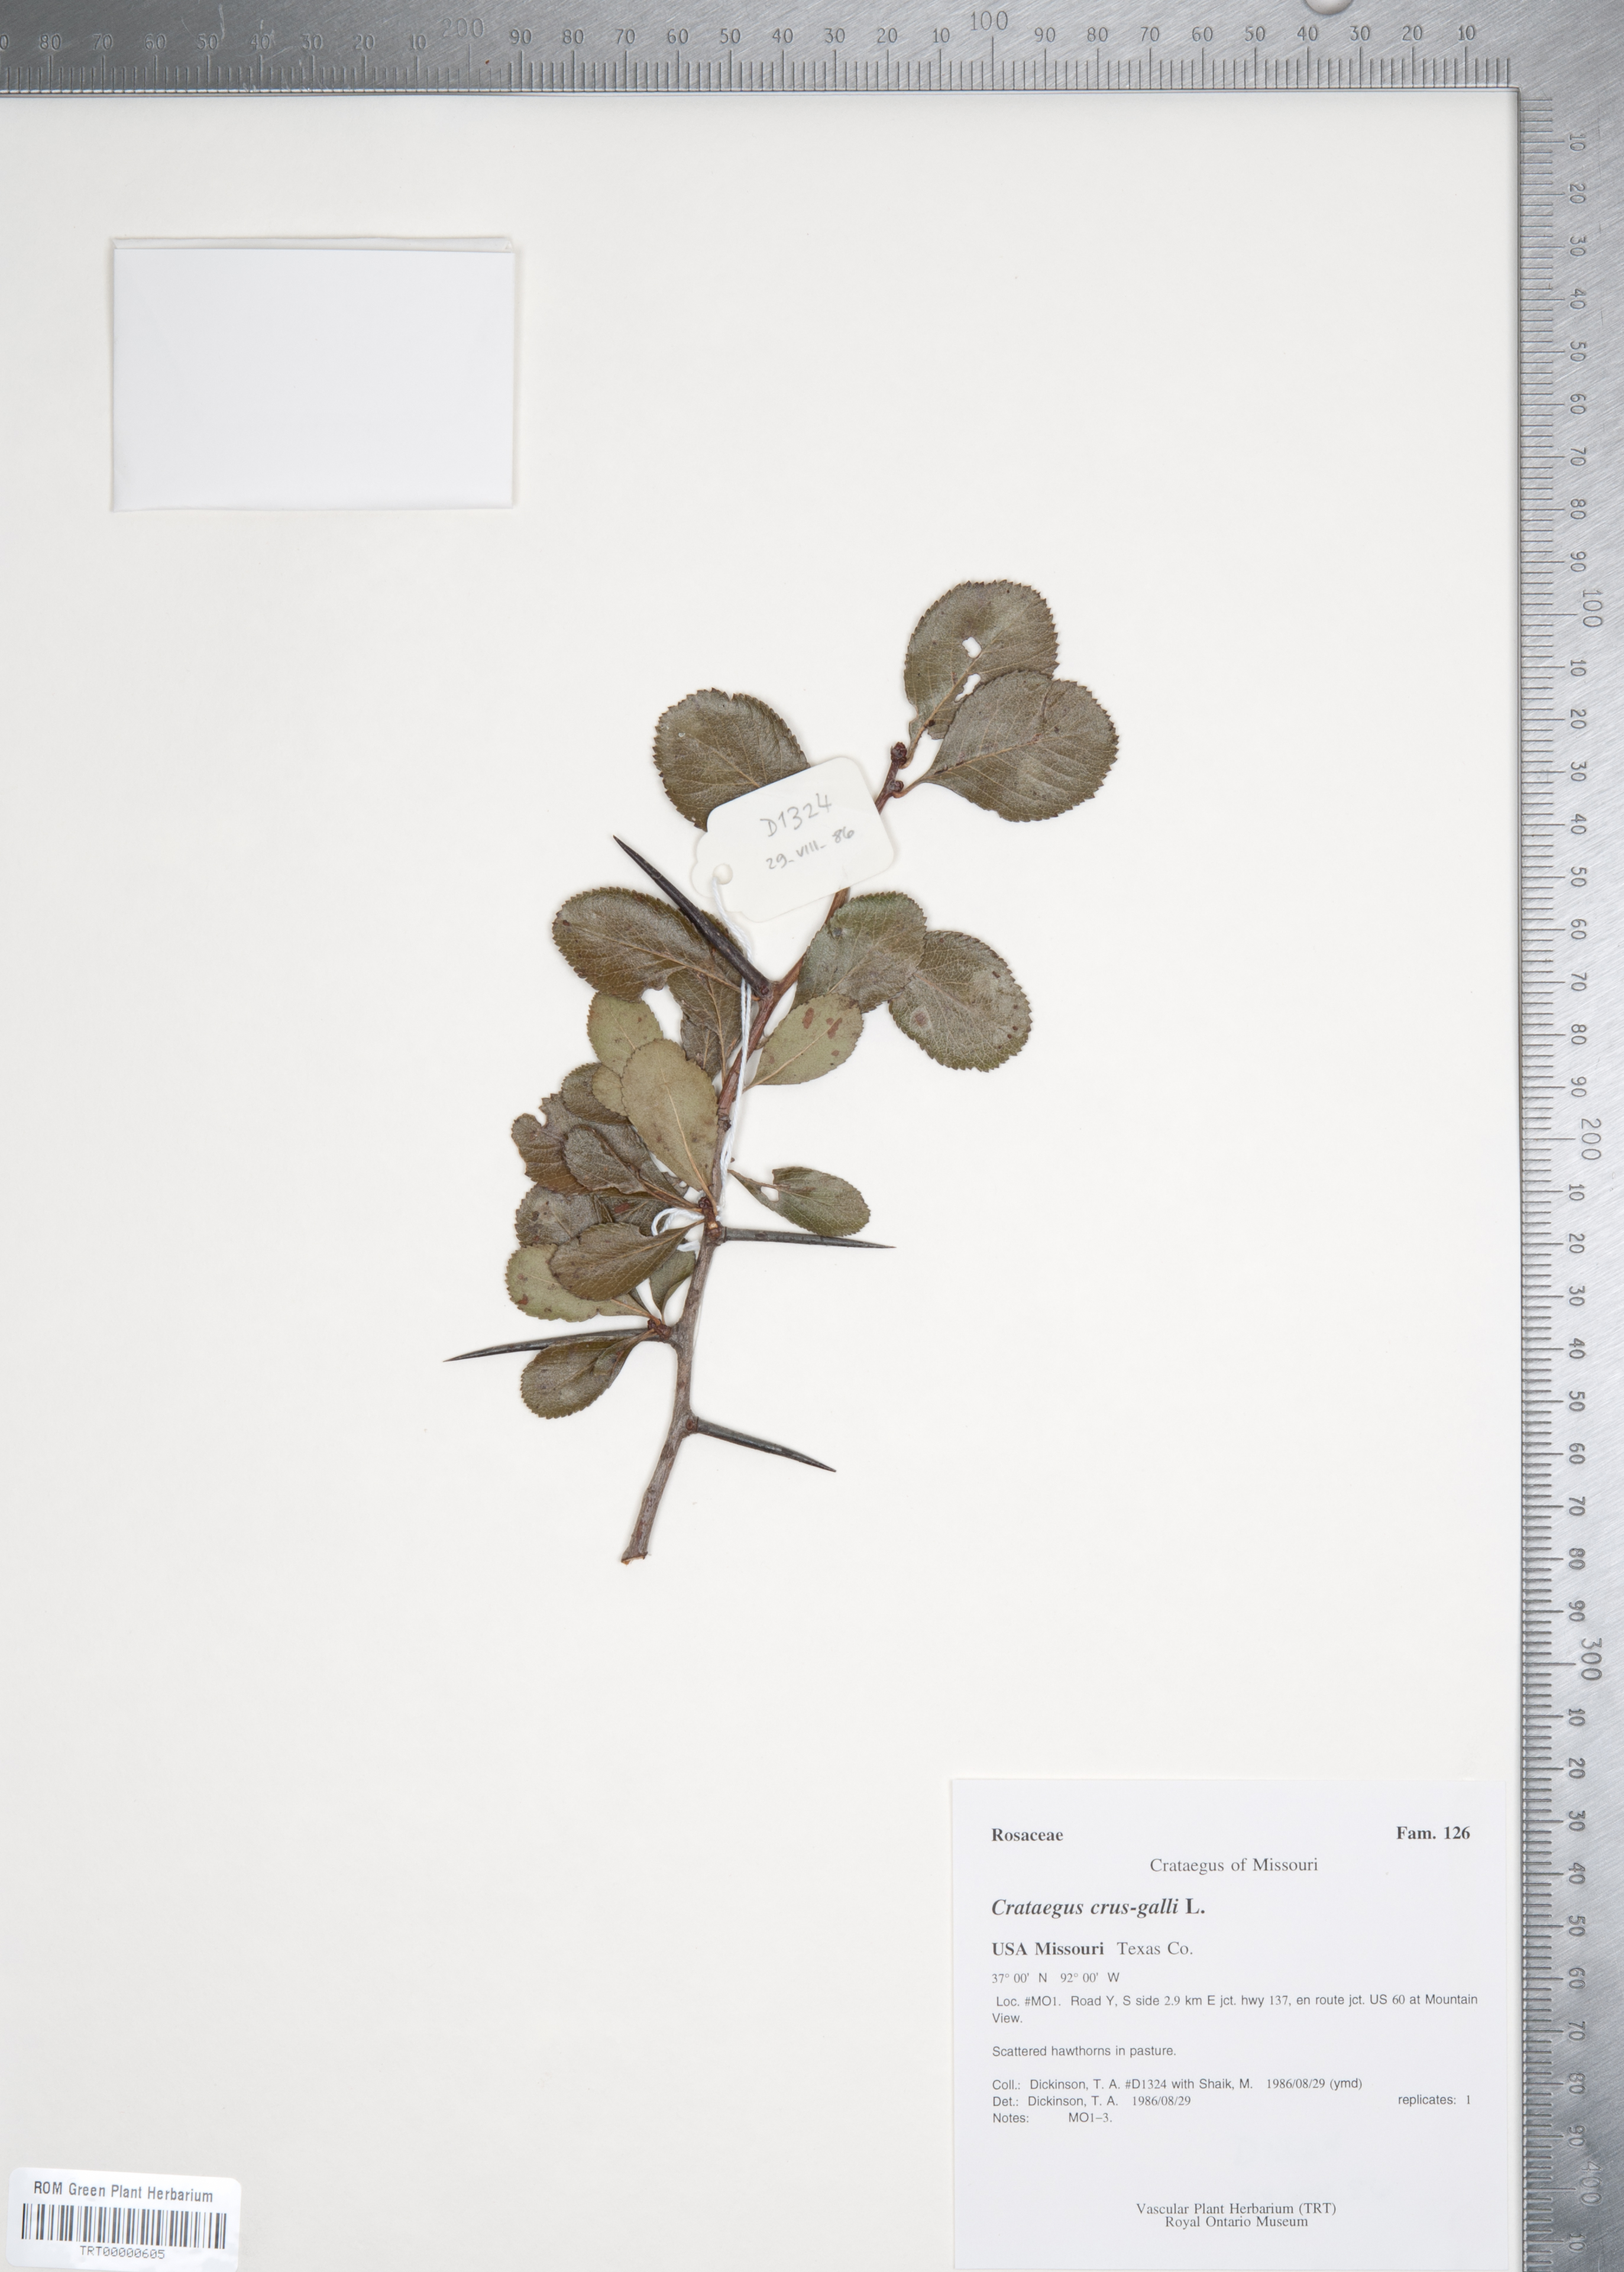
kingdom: Plantae
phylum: Tracheophyta
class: Magnoliopsida
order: Rosales
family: Rosaceae
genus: Crataegus
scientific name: Crataegus crus-galli
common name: Cockspurthorn
